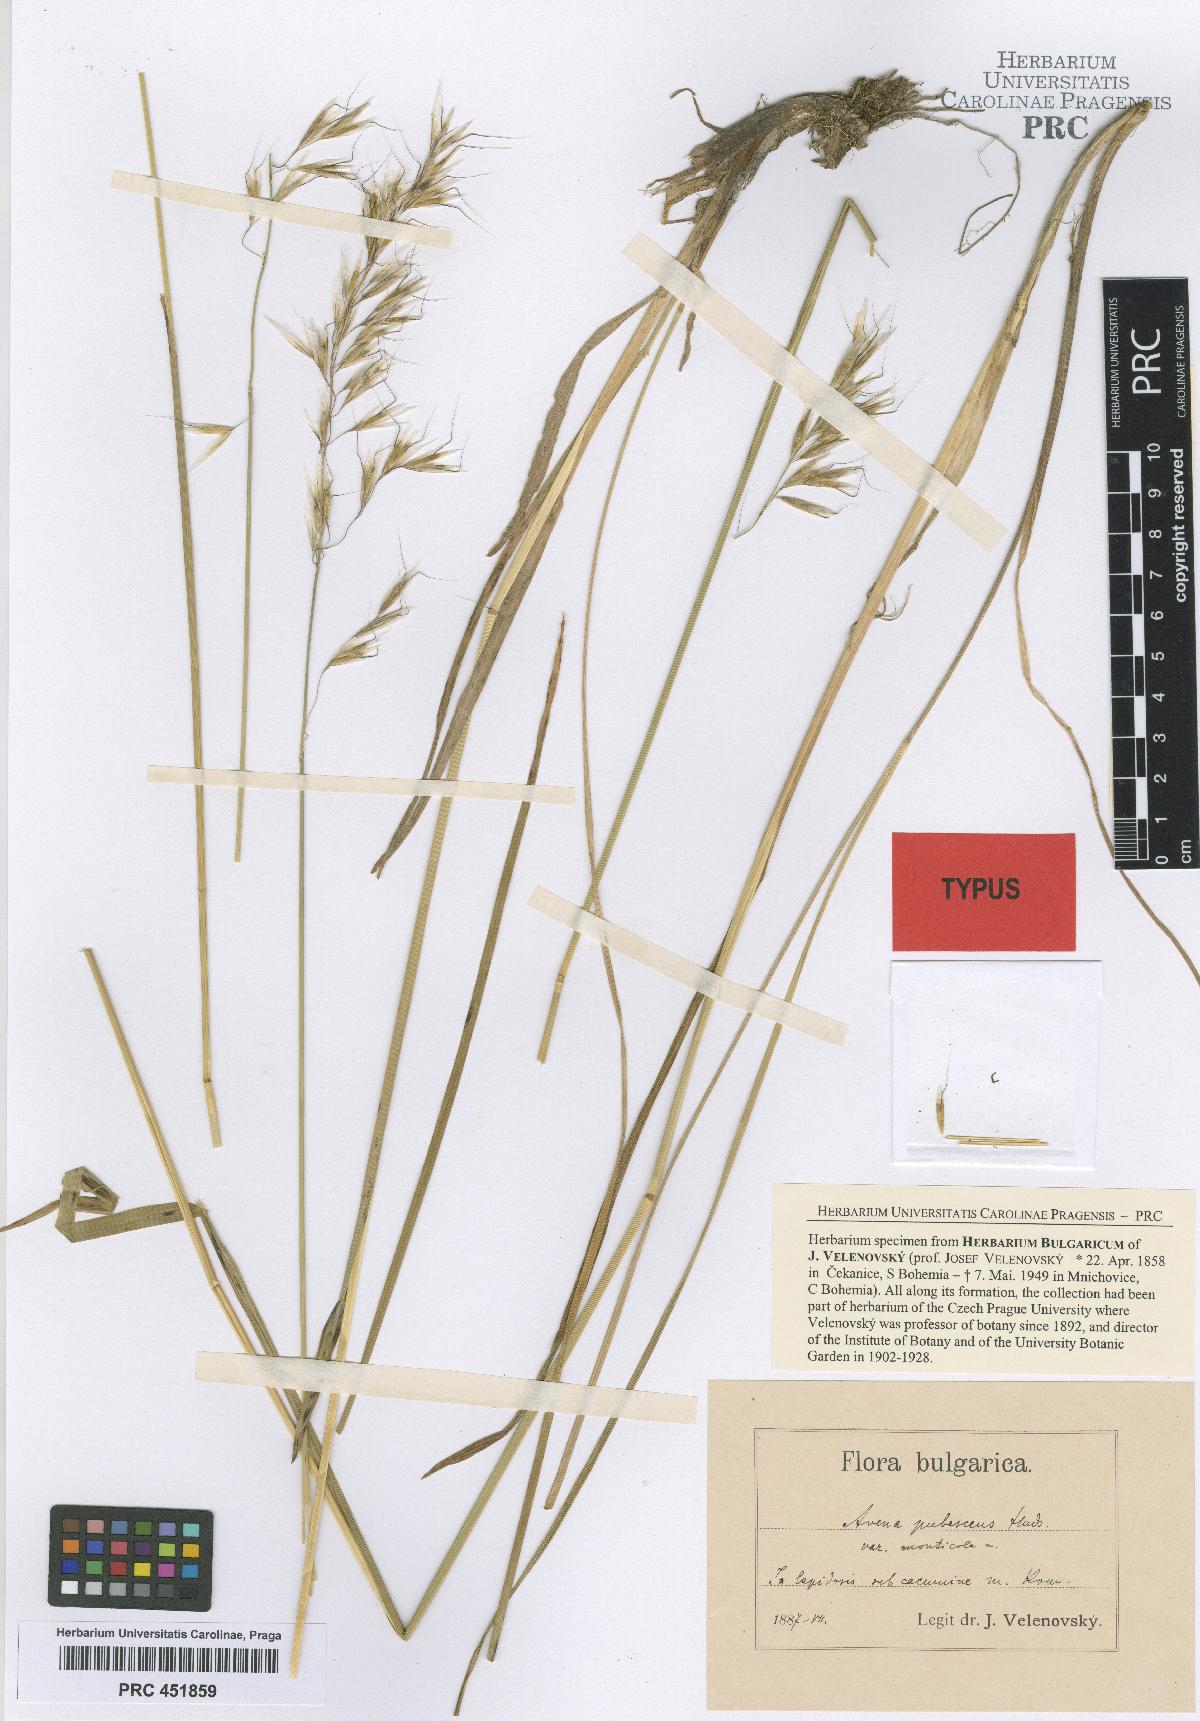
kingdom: Plantae
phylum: Tracheophyta
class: Liliopsida
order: Poales
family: Poaceae
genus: Avenula
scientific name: Avenula pubescens
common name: Downy alpine oatgrass
